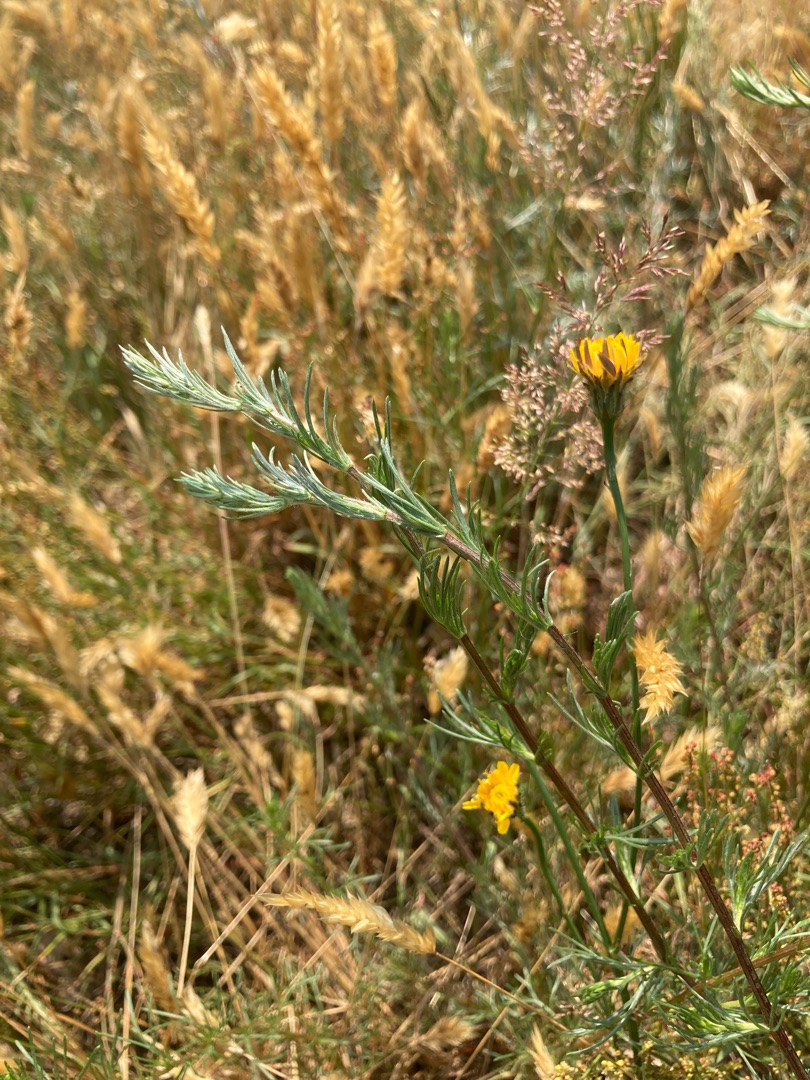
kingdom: Plantae
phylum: Tracheophyta
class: Magnoliopsida
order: Asterales
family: Asteraceae
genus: Artemisia
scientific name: Artemisia campestris
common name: Mark-bynke
